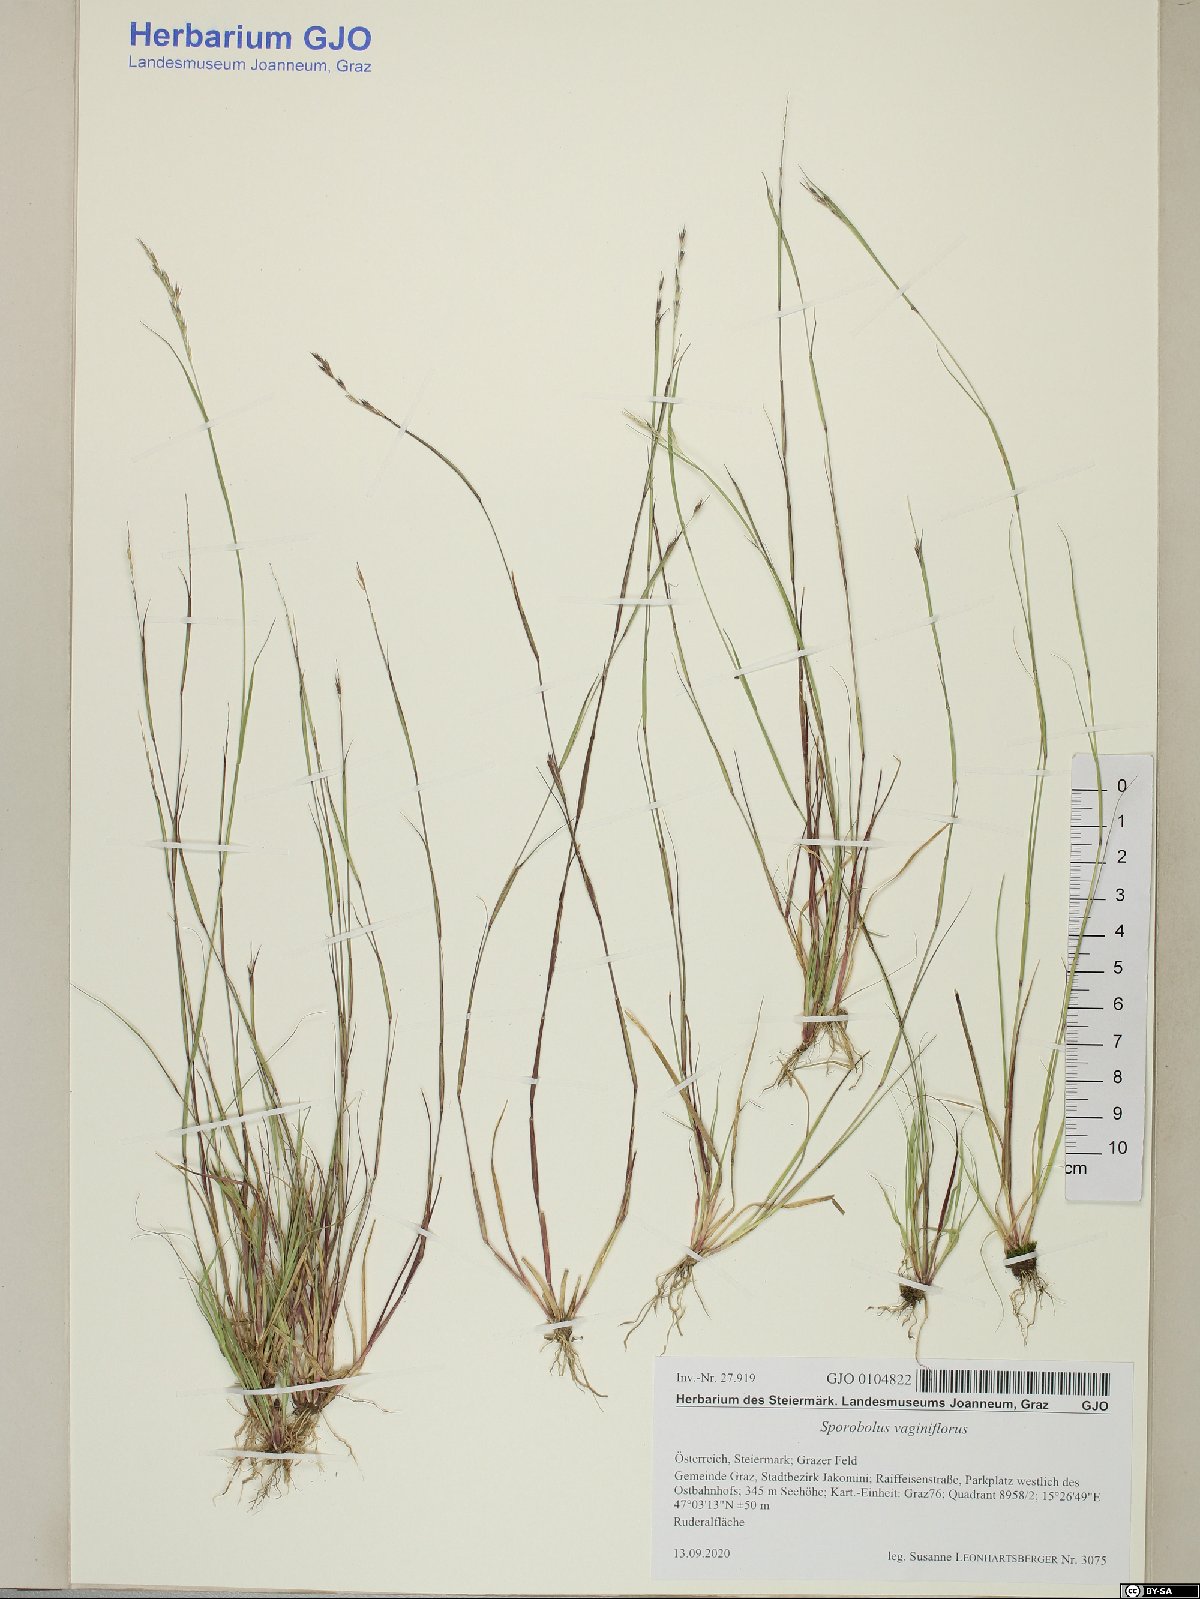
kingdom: Plantae
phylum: Tracheophyta
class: Liliopsida
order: Poales
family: Poaceae
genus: Sporobolus
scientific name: Sporobolus vaginiflorus
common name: Poverty dropseed
